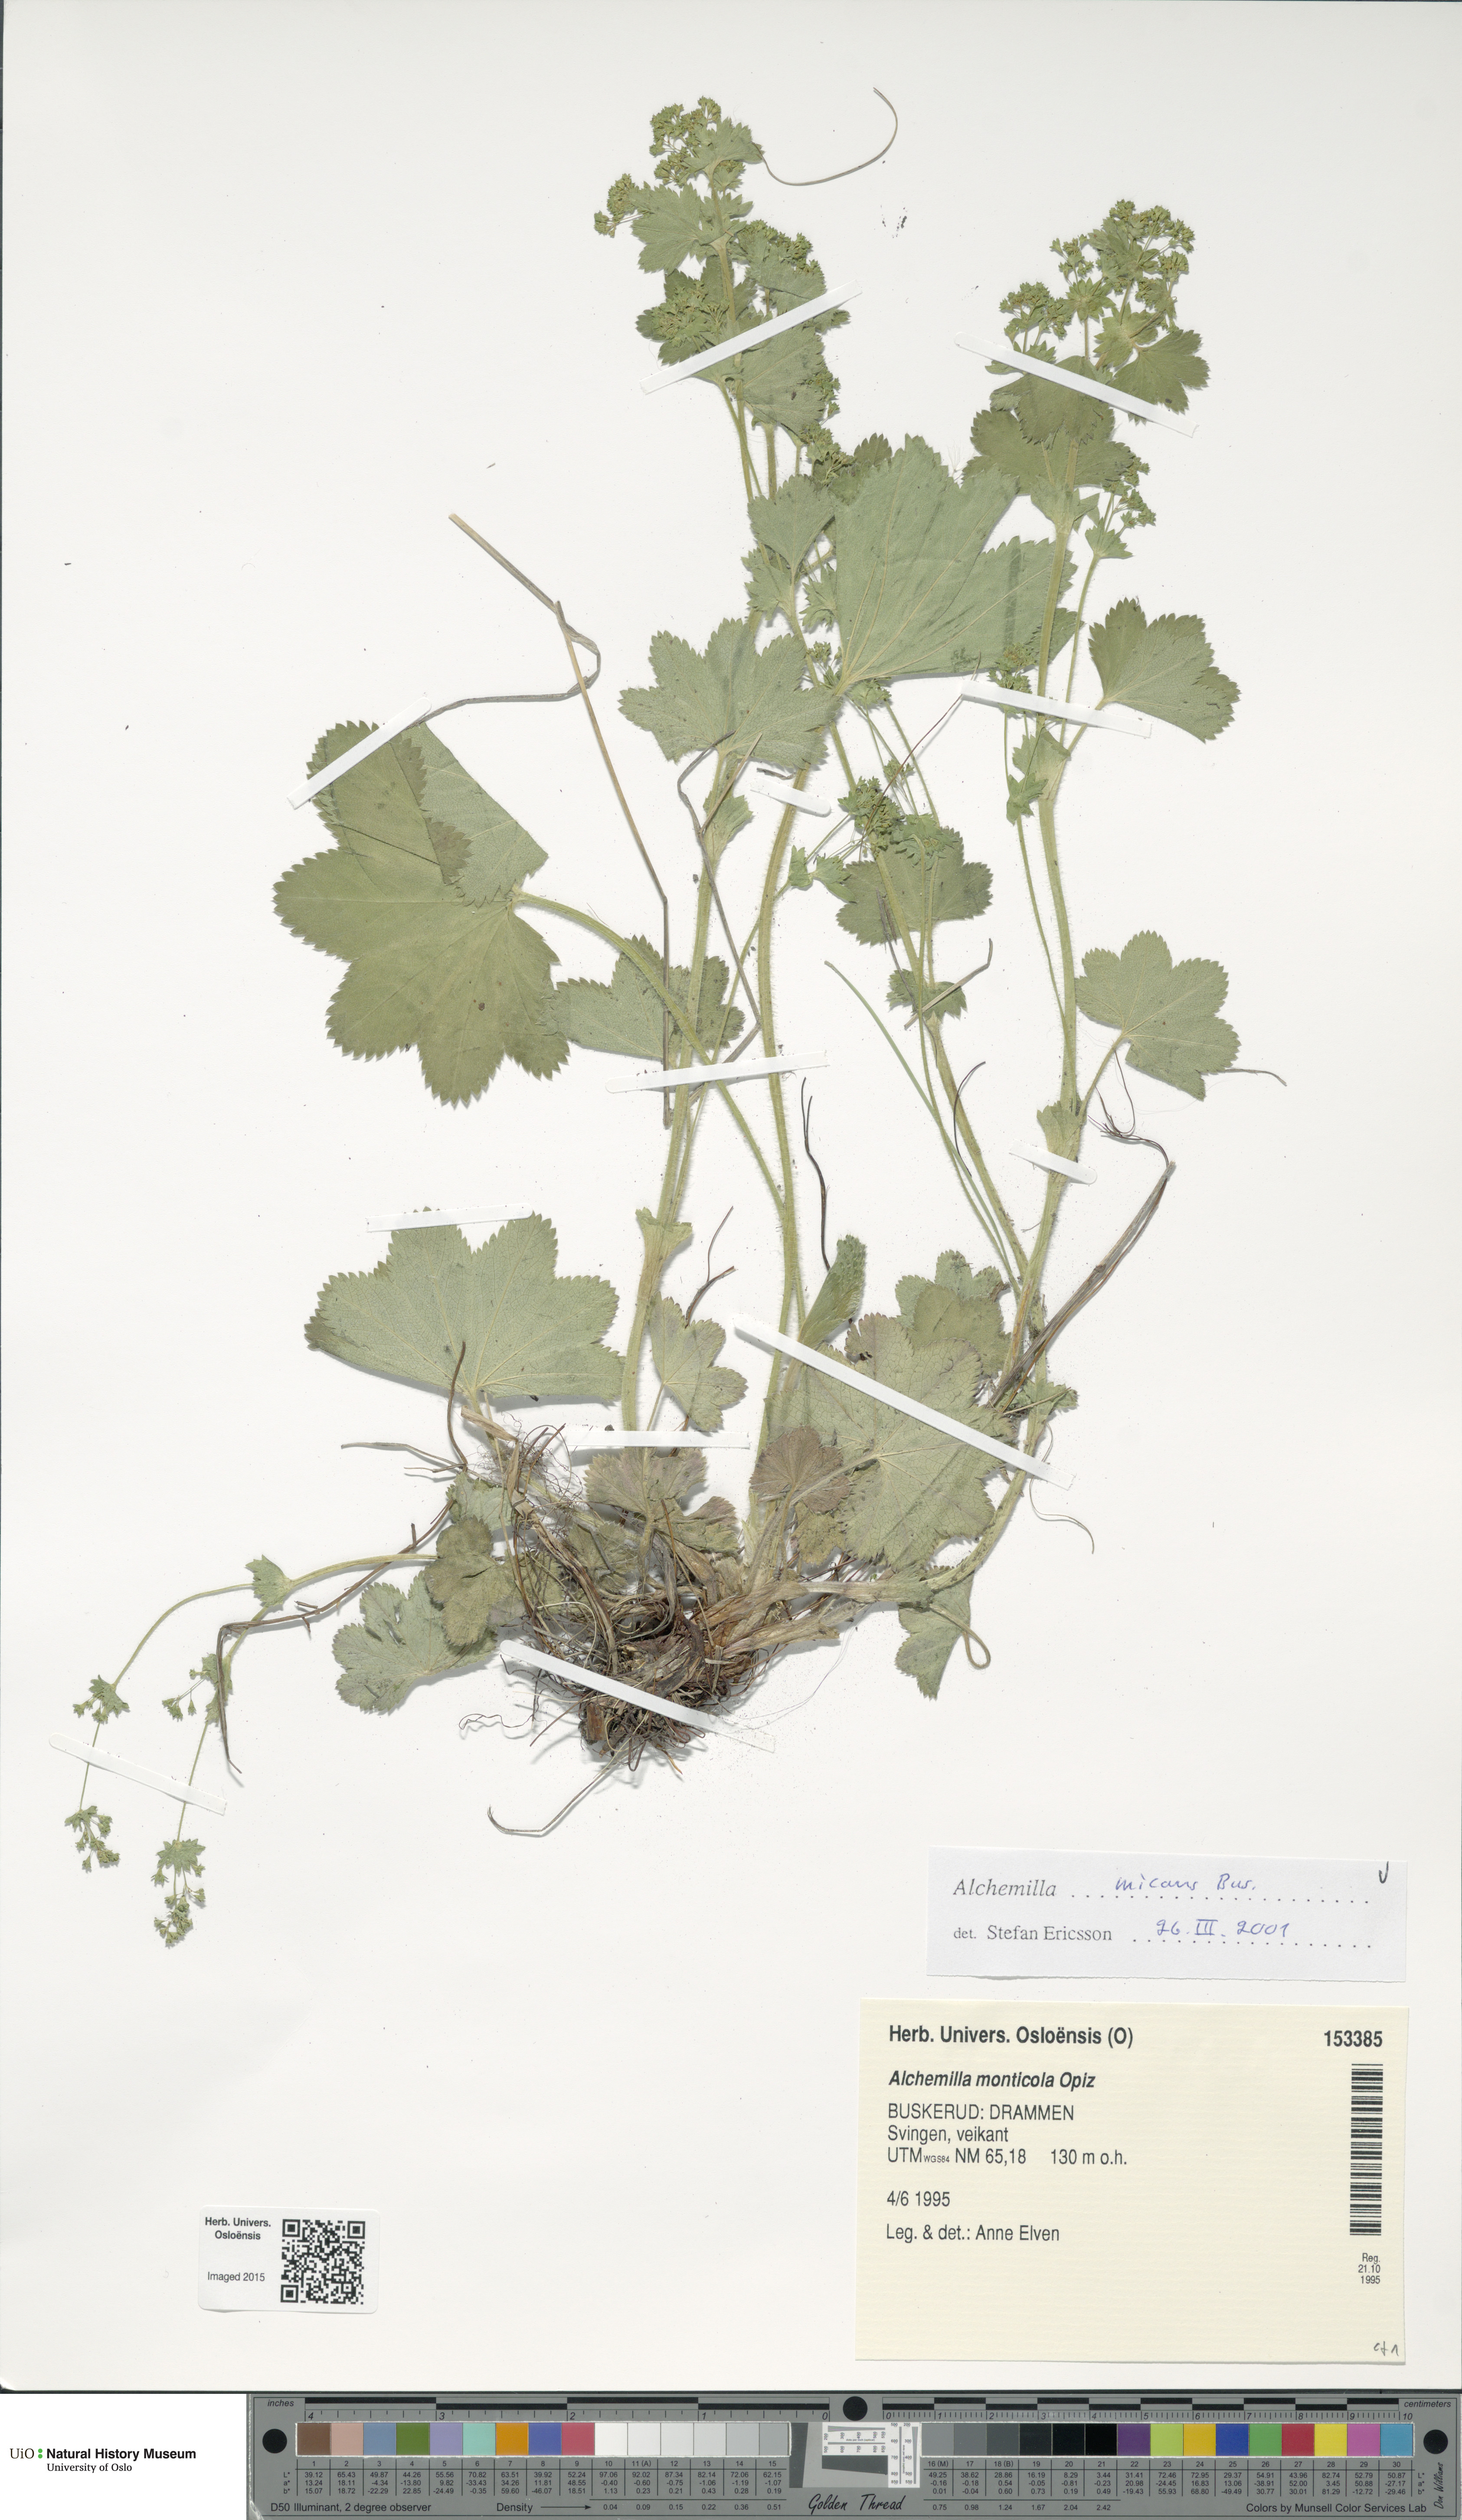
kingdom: Plantae
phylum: Tracheophyta
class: Magnoliopsida
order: Rosales
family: Rosaceae
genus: Alchemilla
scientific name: Alchemilla micans
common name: Gleaming lady's mantle
